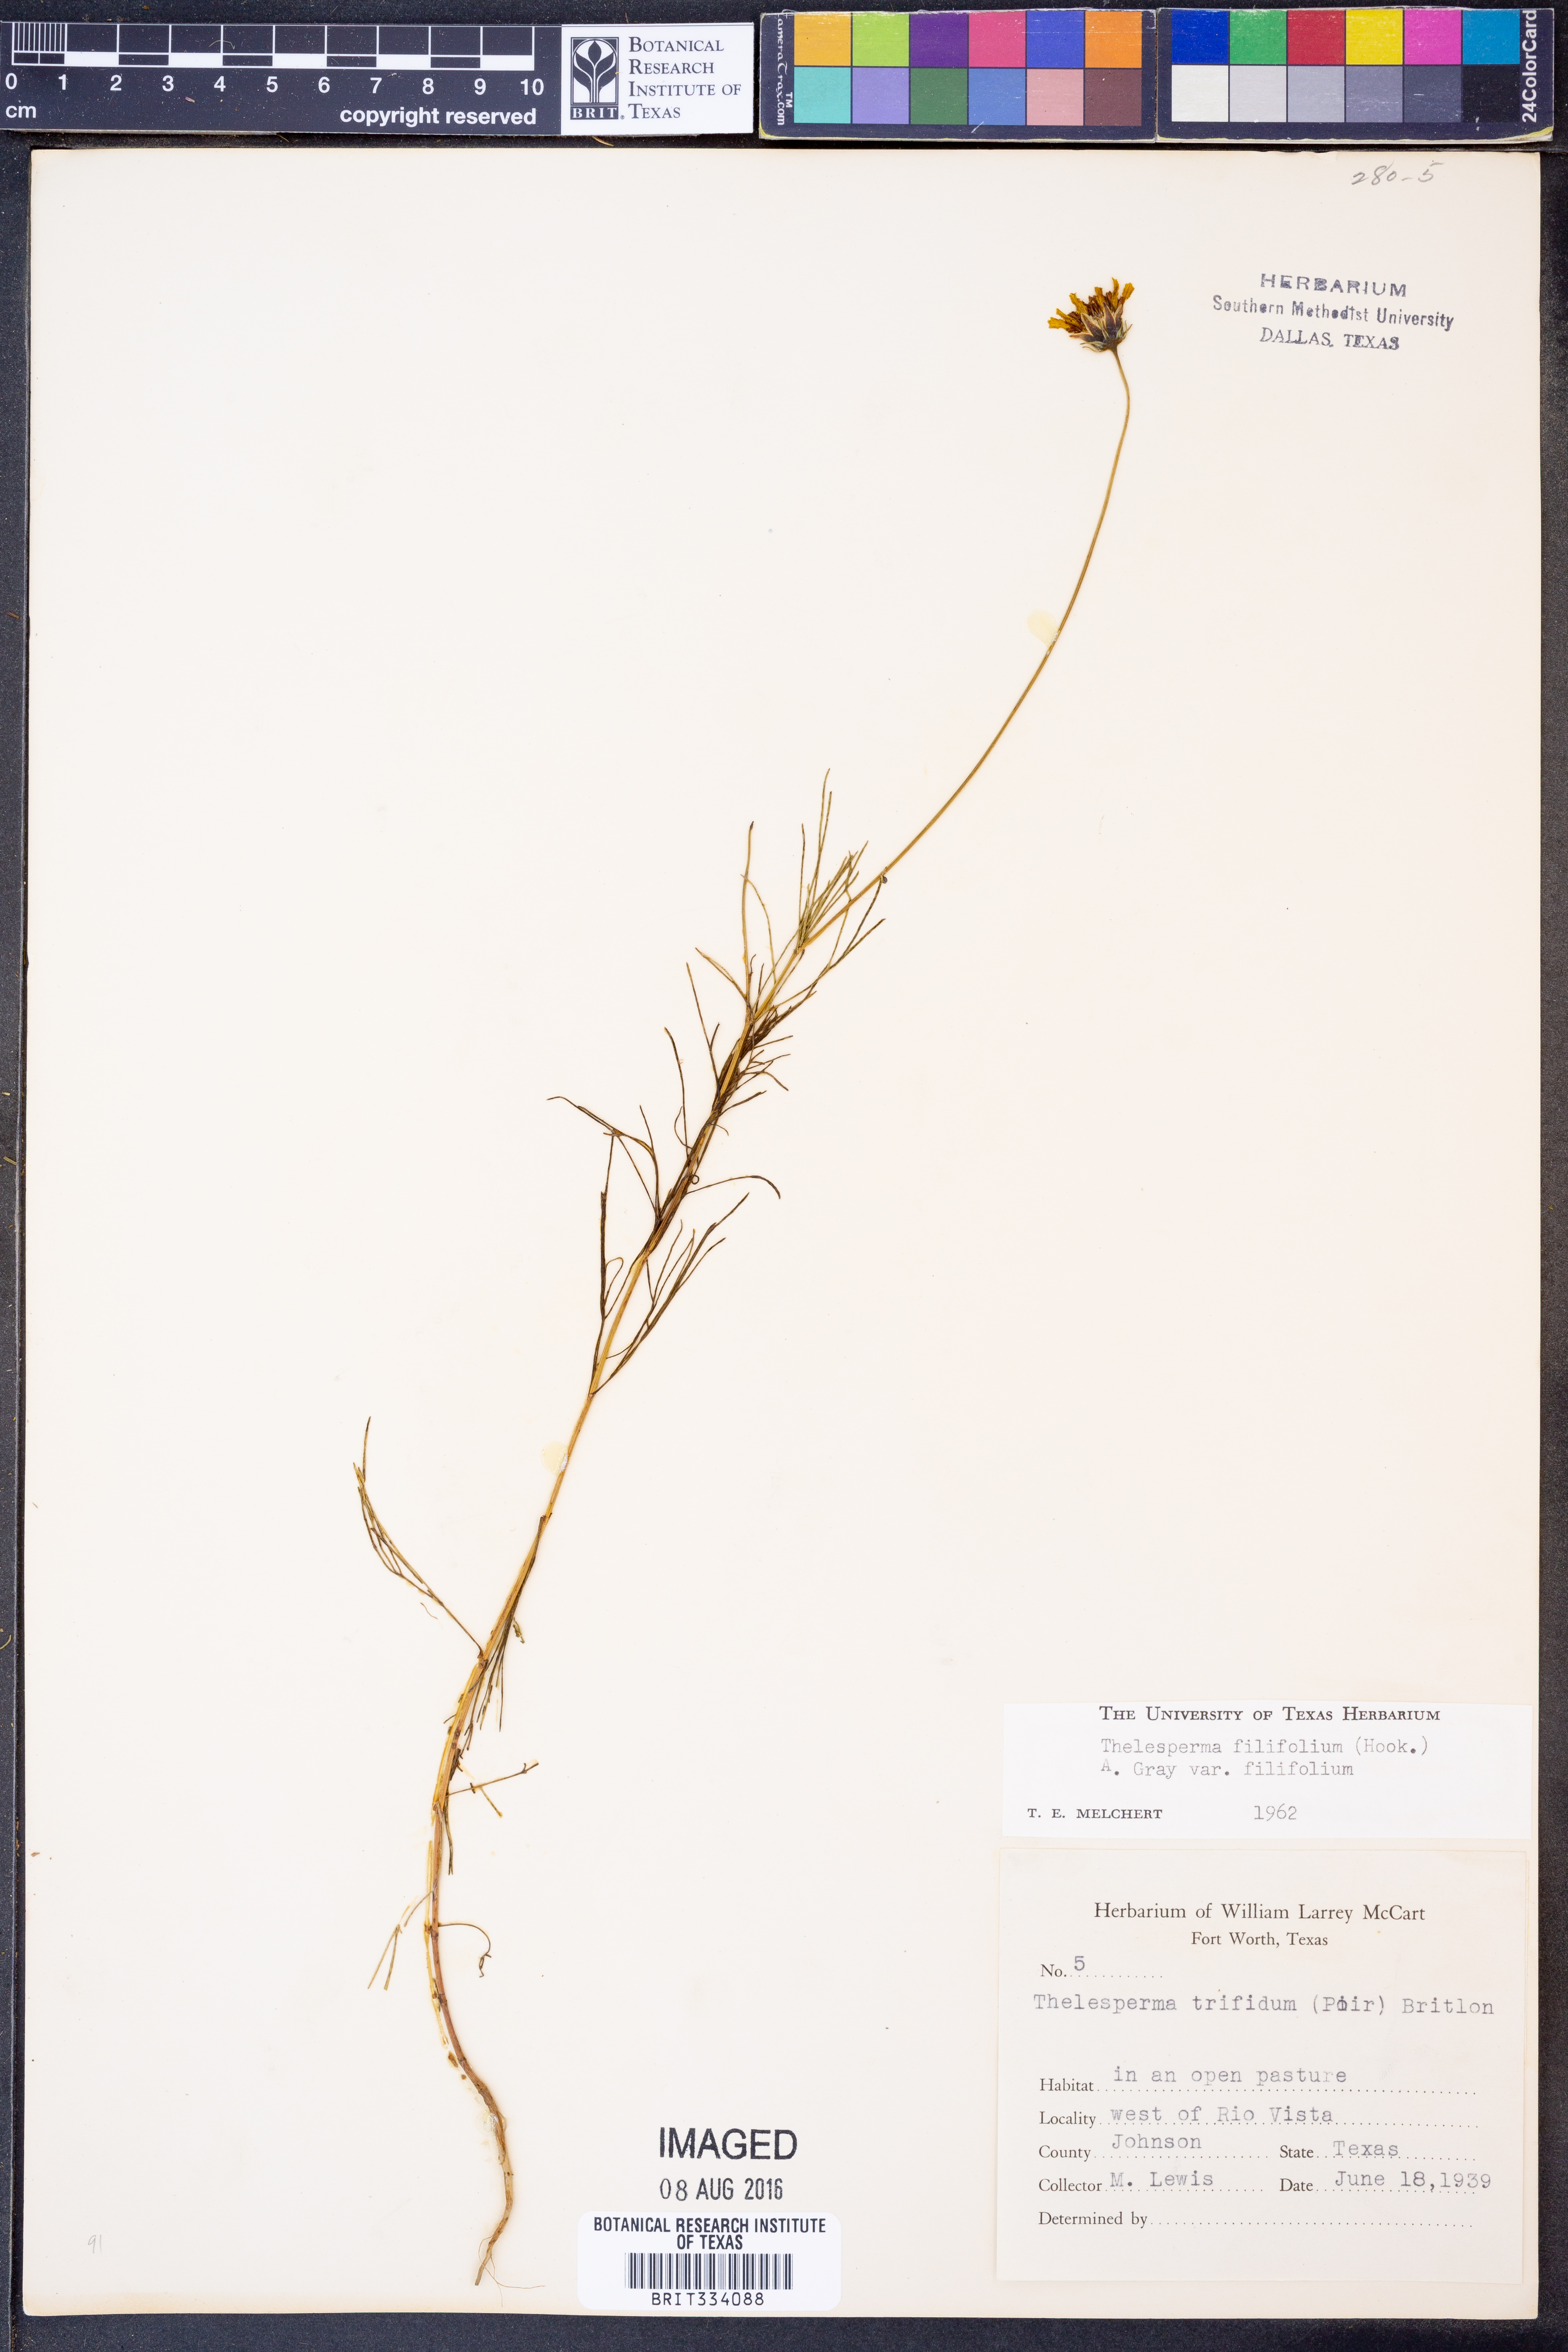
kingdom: Plantae
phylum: Tracheophyta
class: Magnoliopsida
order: Asterales
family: Asteraceae
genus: Thelesperma
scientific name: Thelesperma filifolium
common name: Stiff greenthread
